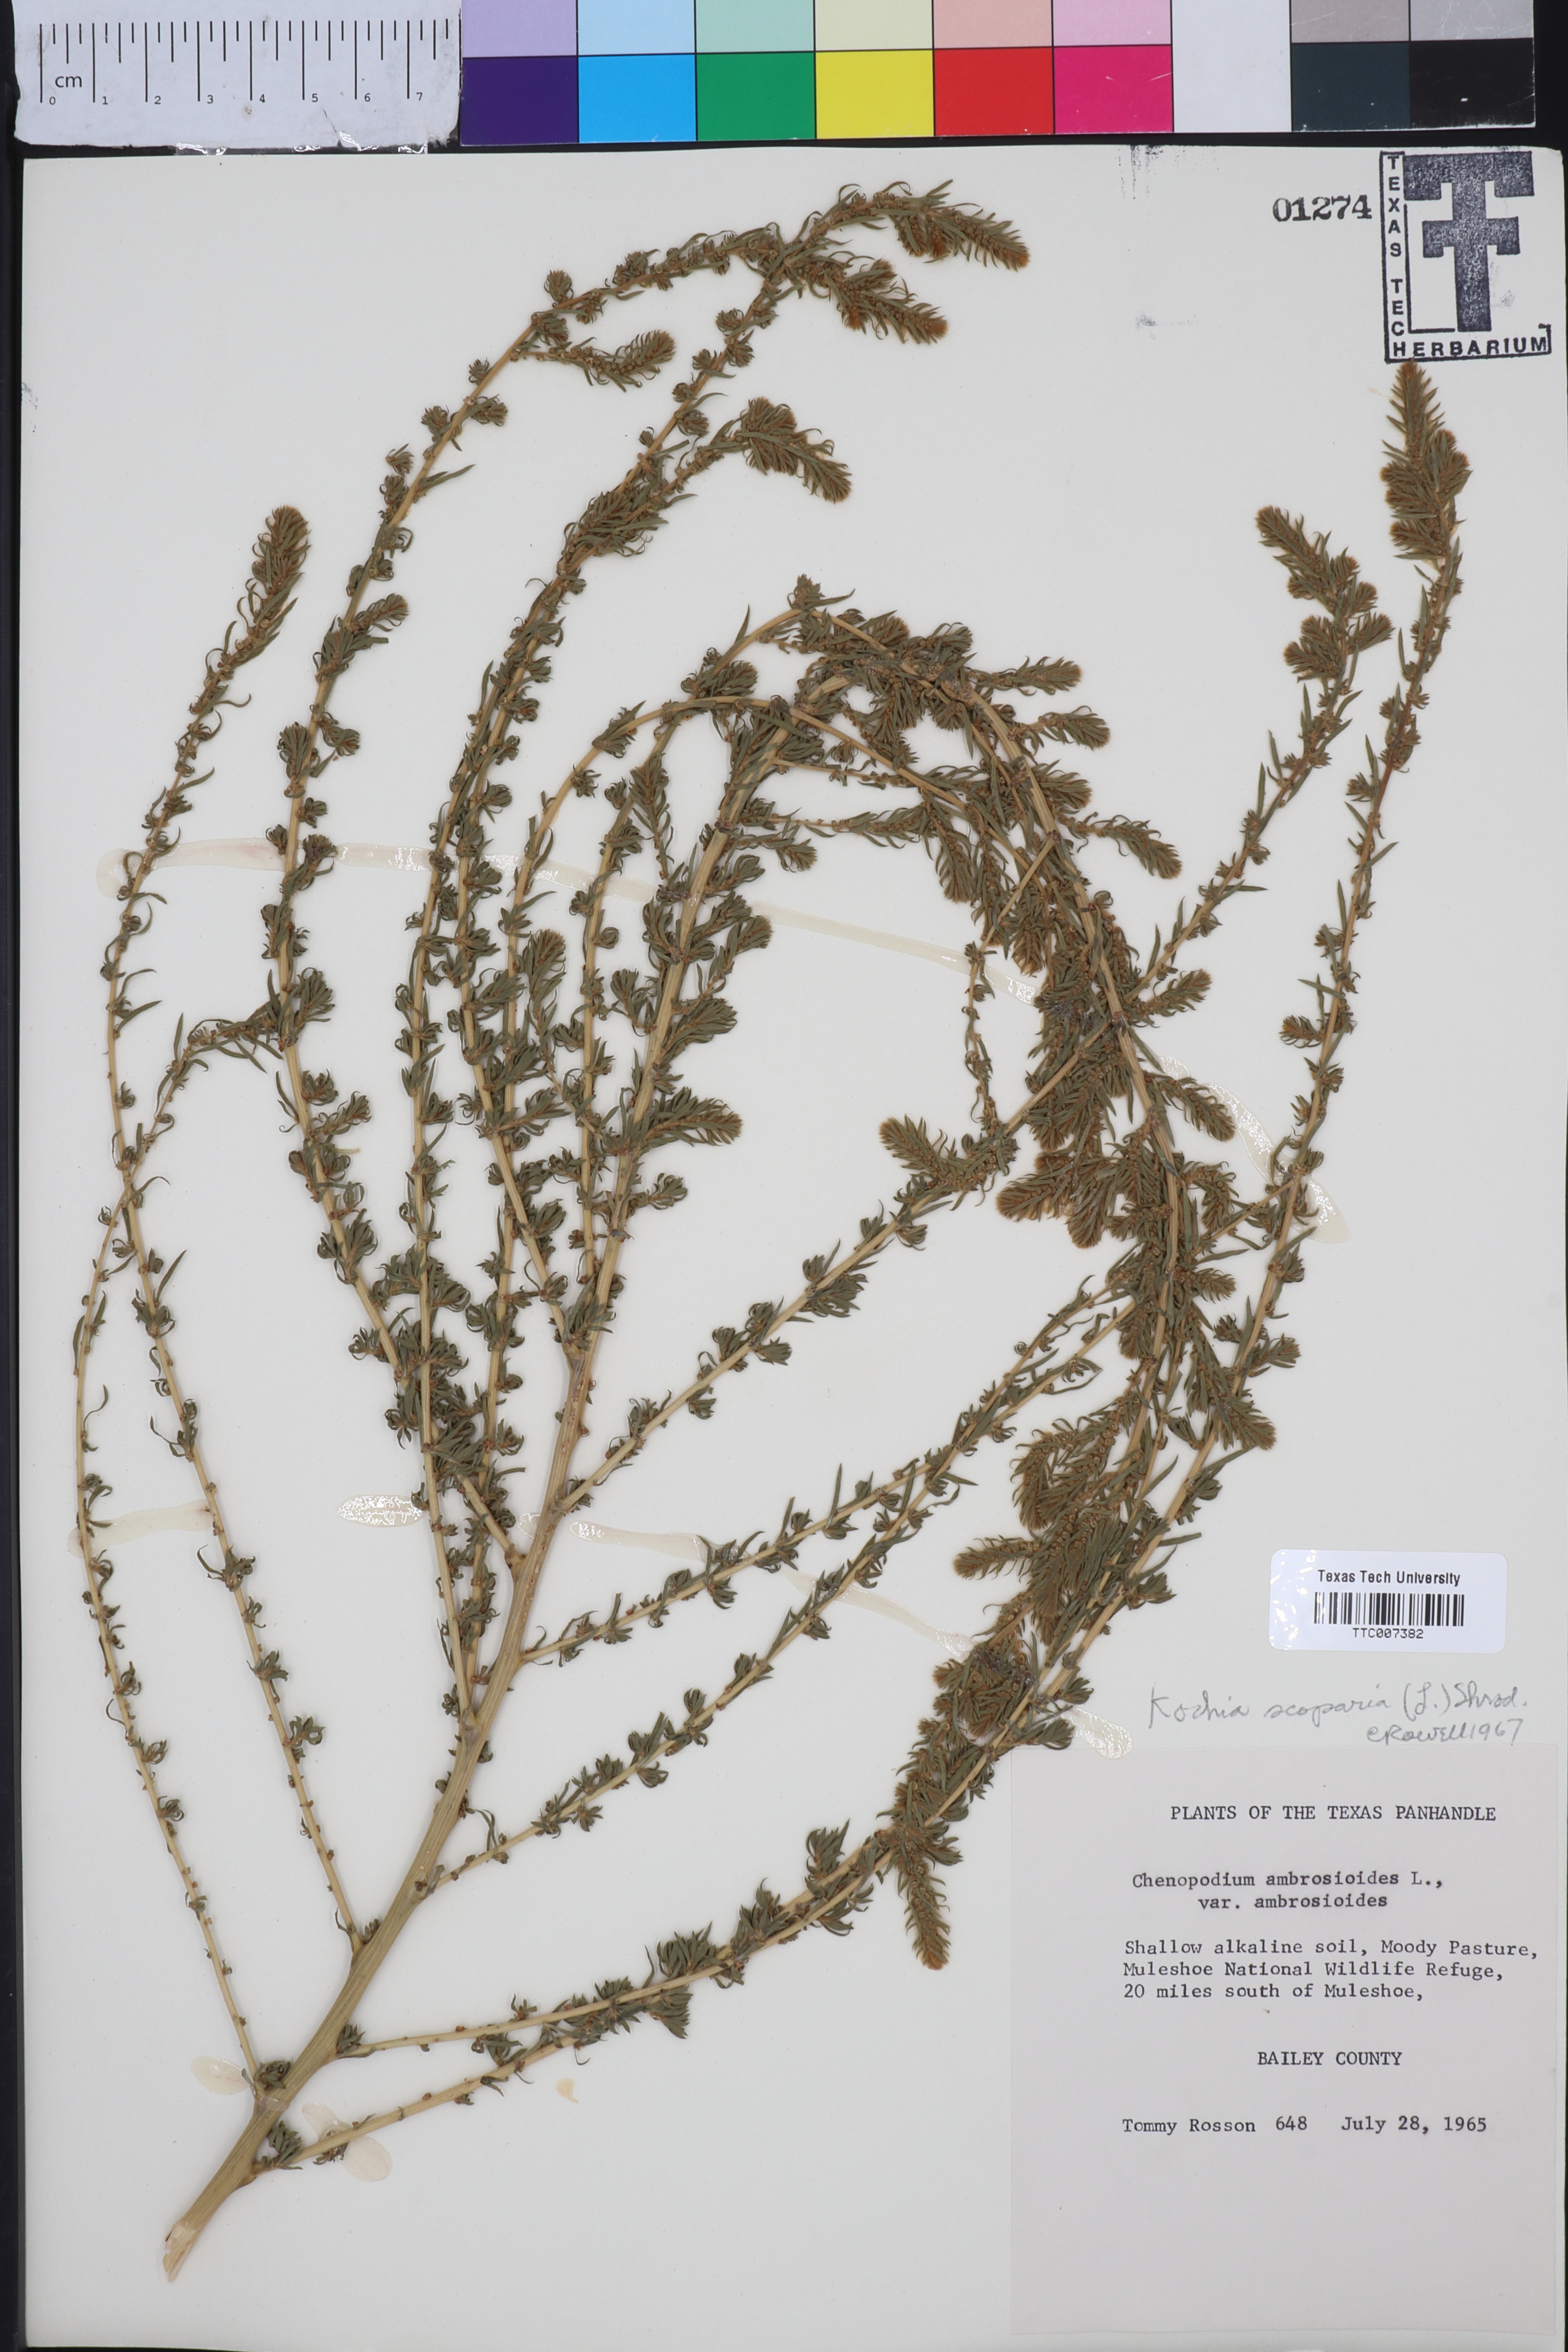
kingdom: Plantae
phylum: Tracheophyta
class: Magnoliopsida
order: Caryophyllales
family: Amaranthaceae
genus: Bassia
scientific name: Bassia scoparia
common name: Belvedere
